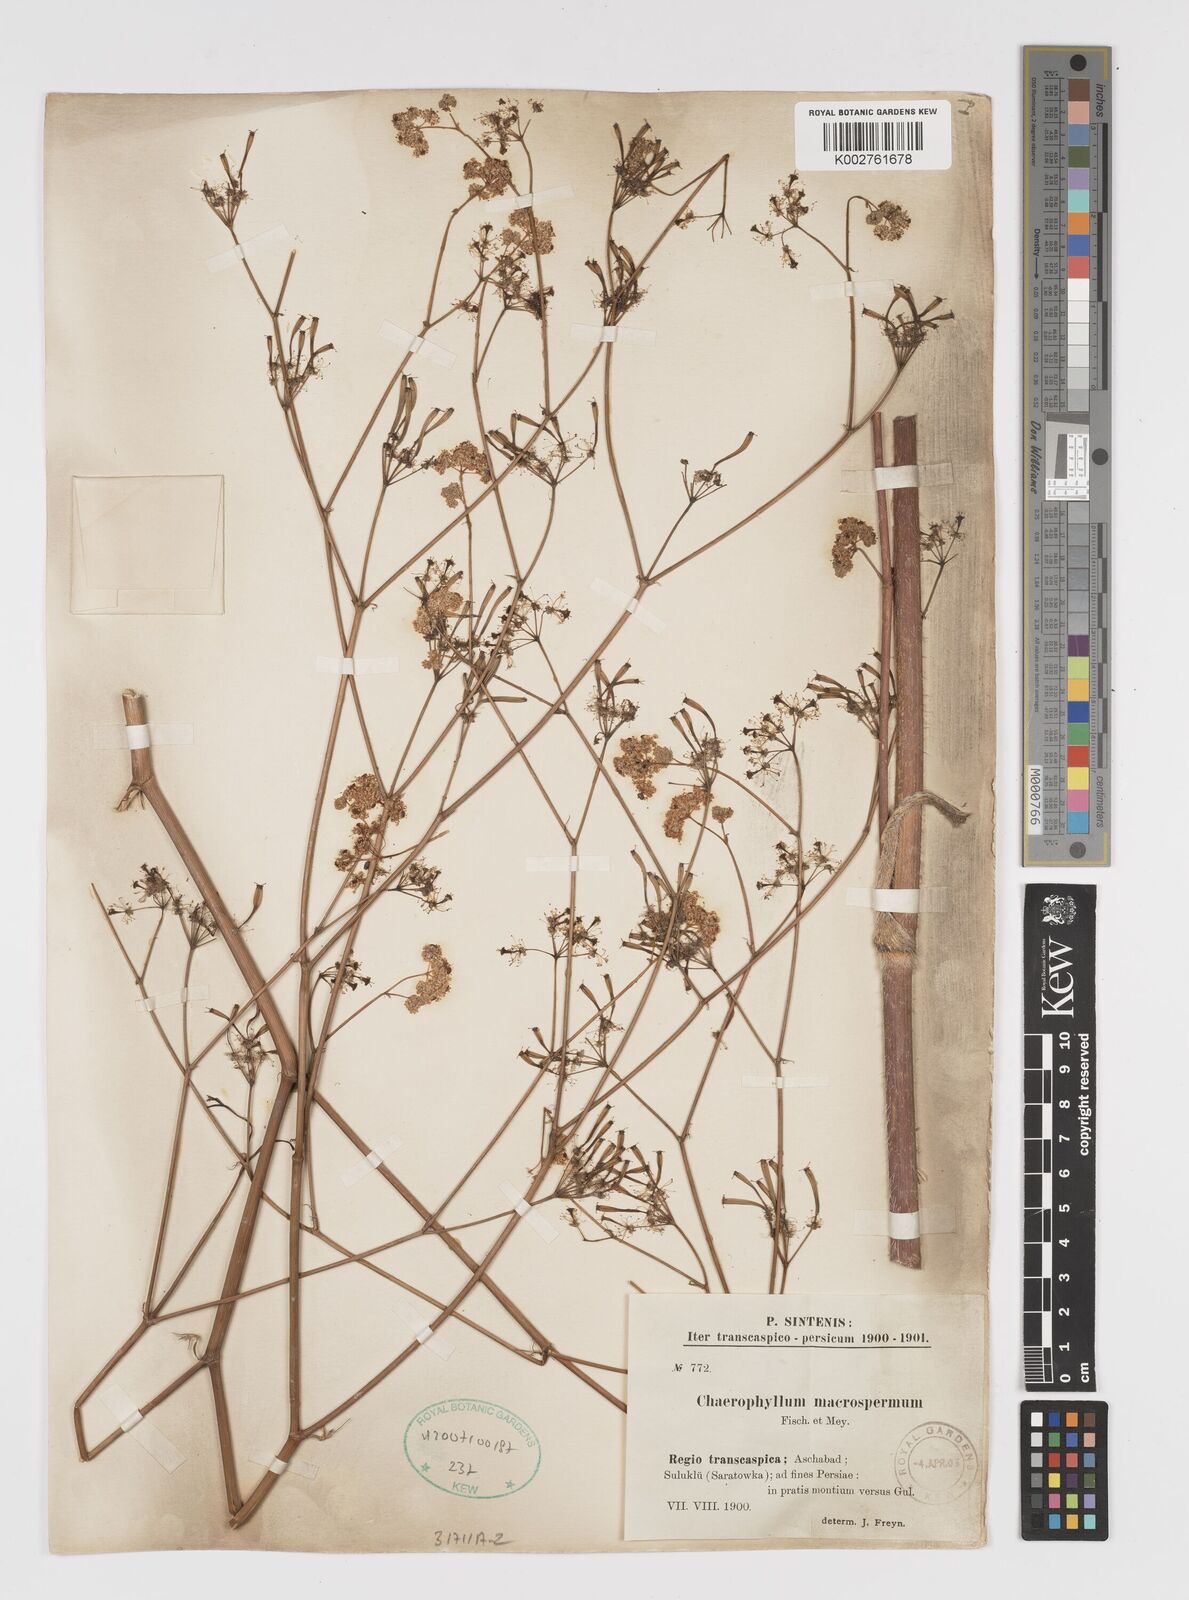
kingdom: Plantae
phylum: Tracheophyta
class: Magnoliopsida
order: Apiales
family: Apiaceae
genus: Chaerophyllum
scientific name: Chaerophyllum macrospermum
